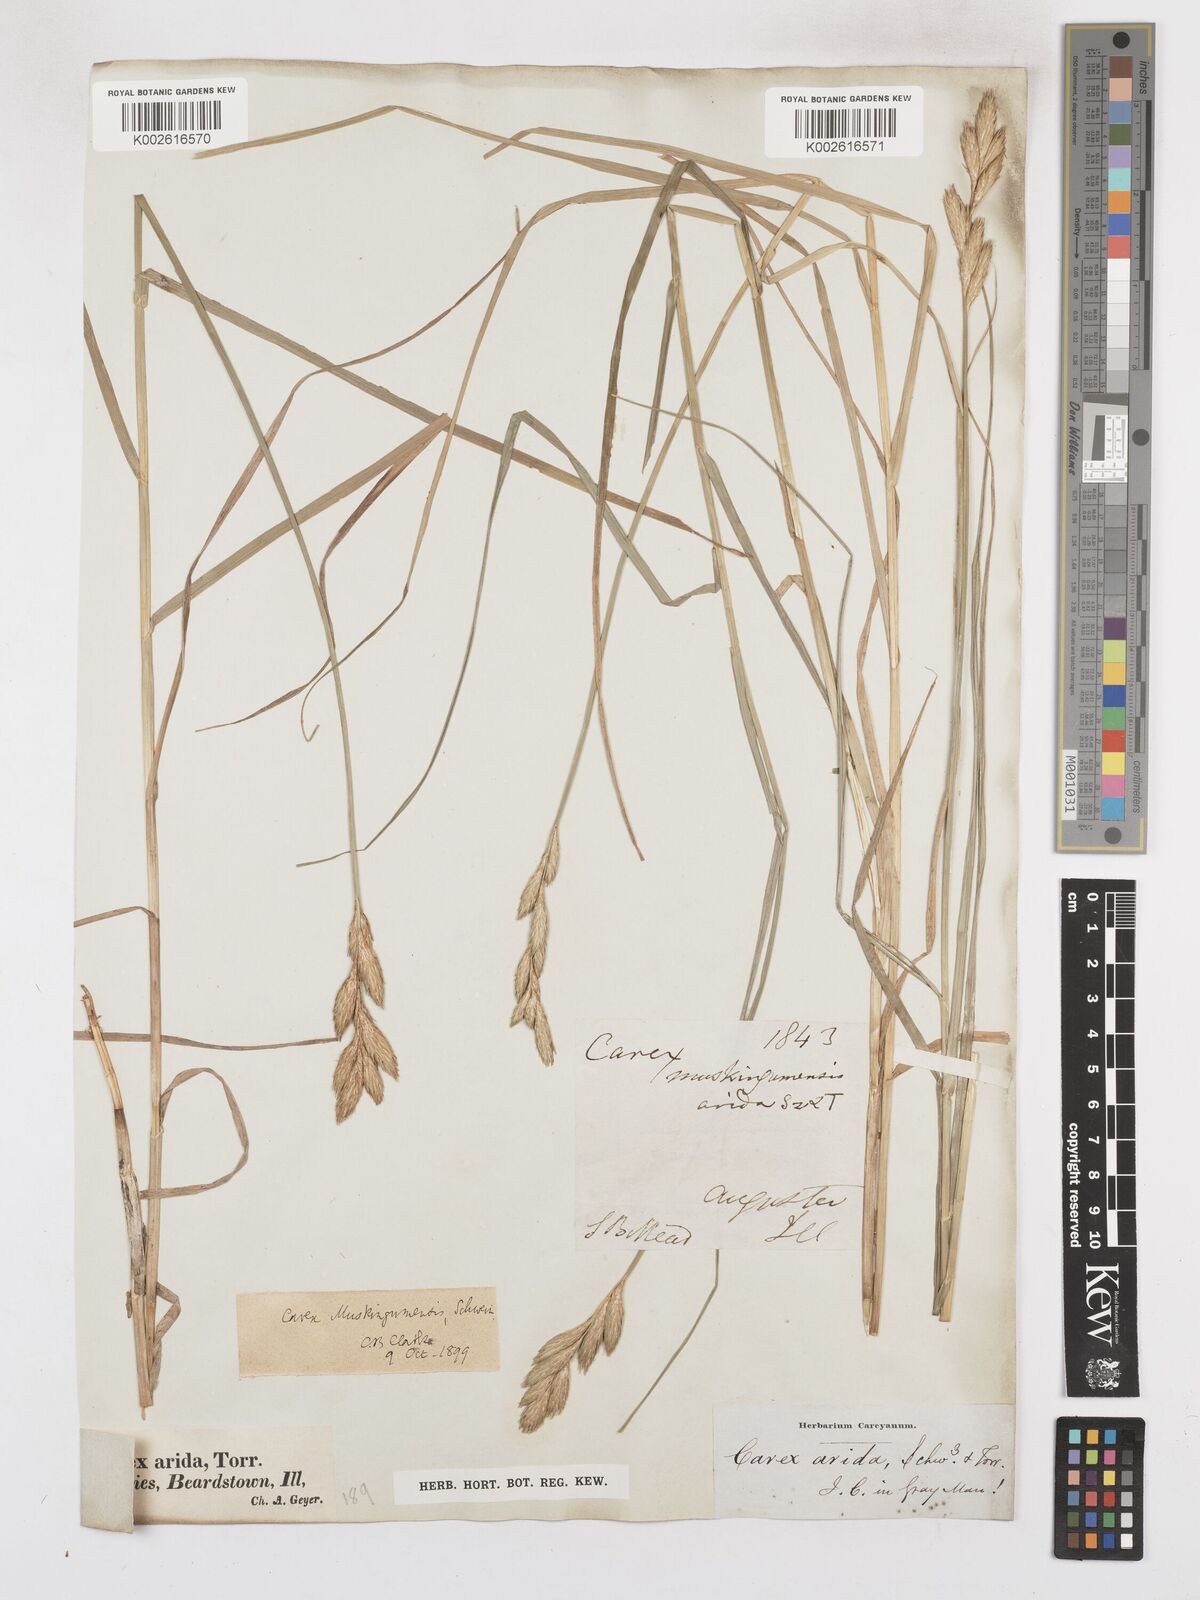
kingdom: Plantae
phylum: Tracheophyta
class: Liliopsida
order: Poales
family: Cyperaceae
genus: Carex
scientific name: Carex muskingumensis
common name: Muskingum sedge
